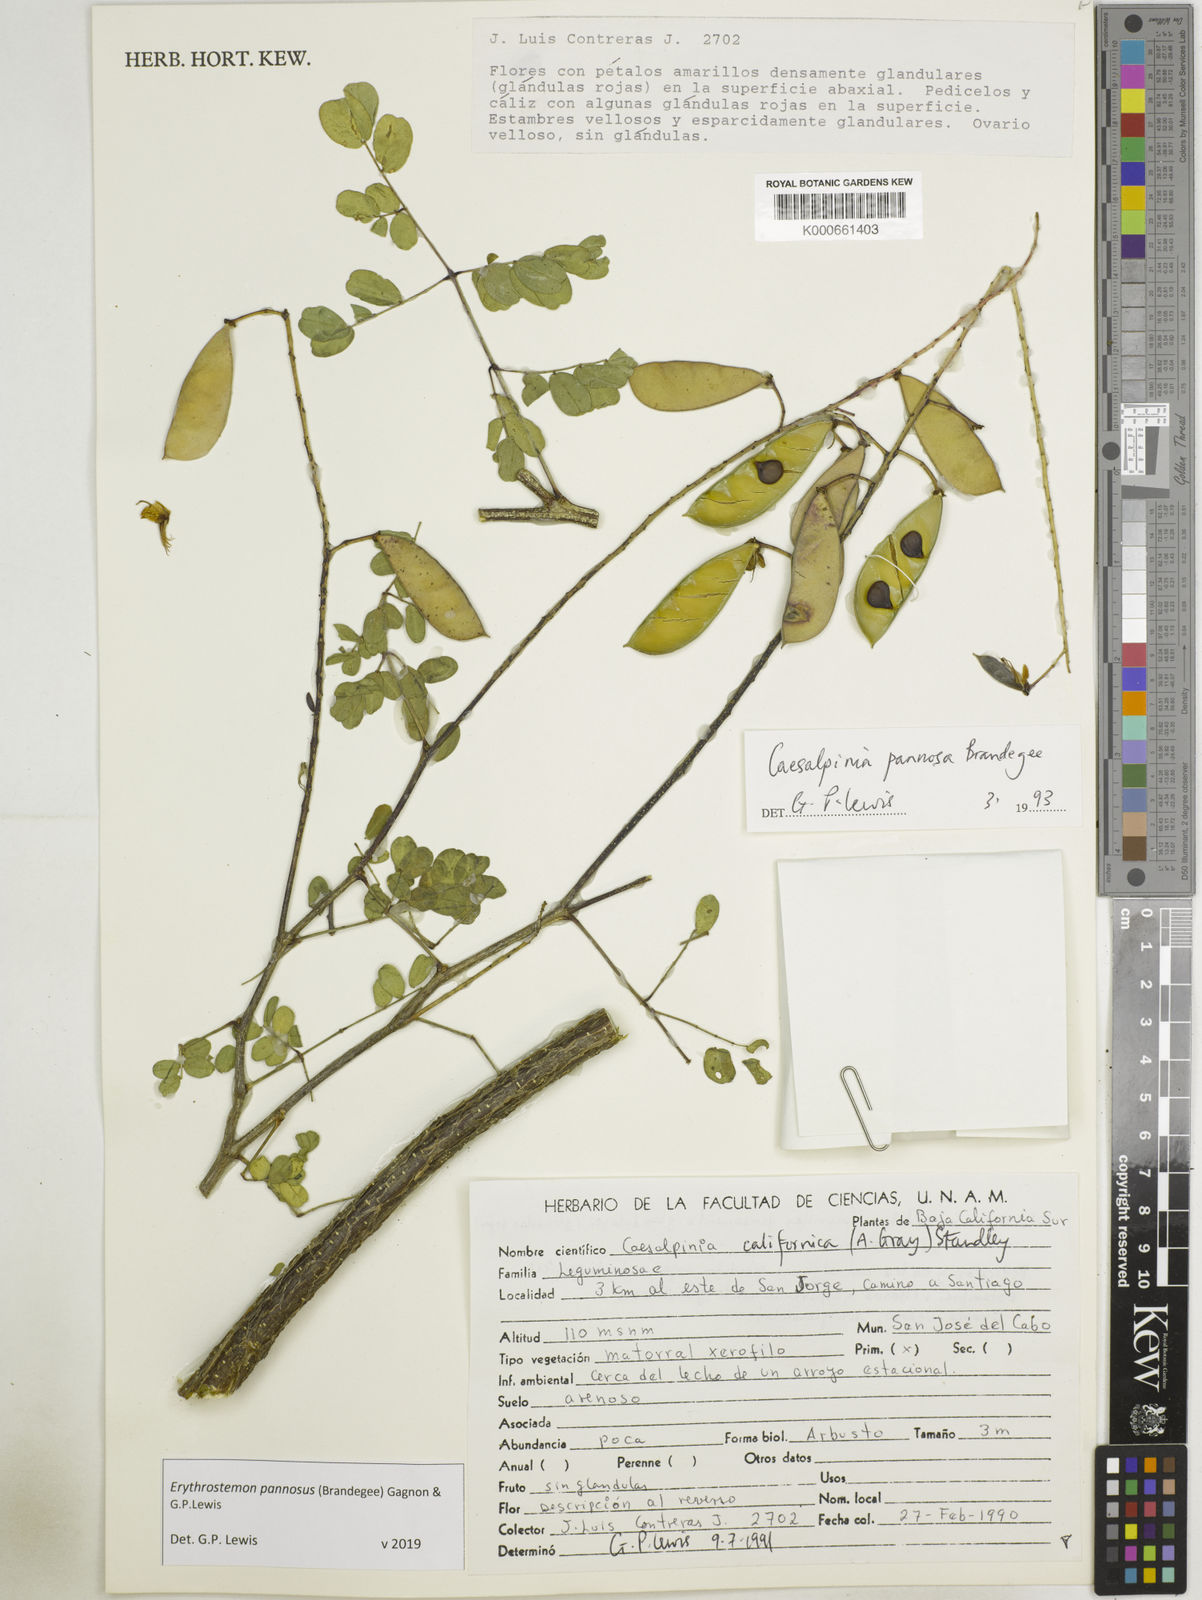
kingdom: Plantae
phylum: Tracheophyta
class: Magnoliopsida
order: Fabales
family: Fabaceae
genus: Erythrostemon
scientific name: Erythrostemon pannosus
